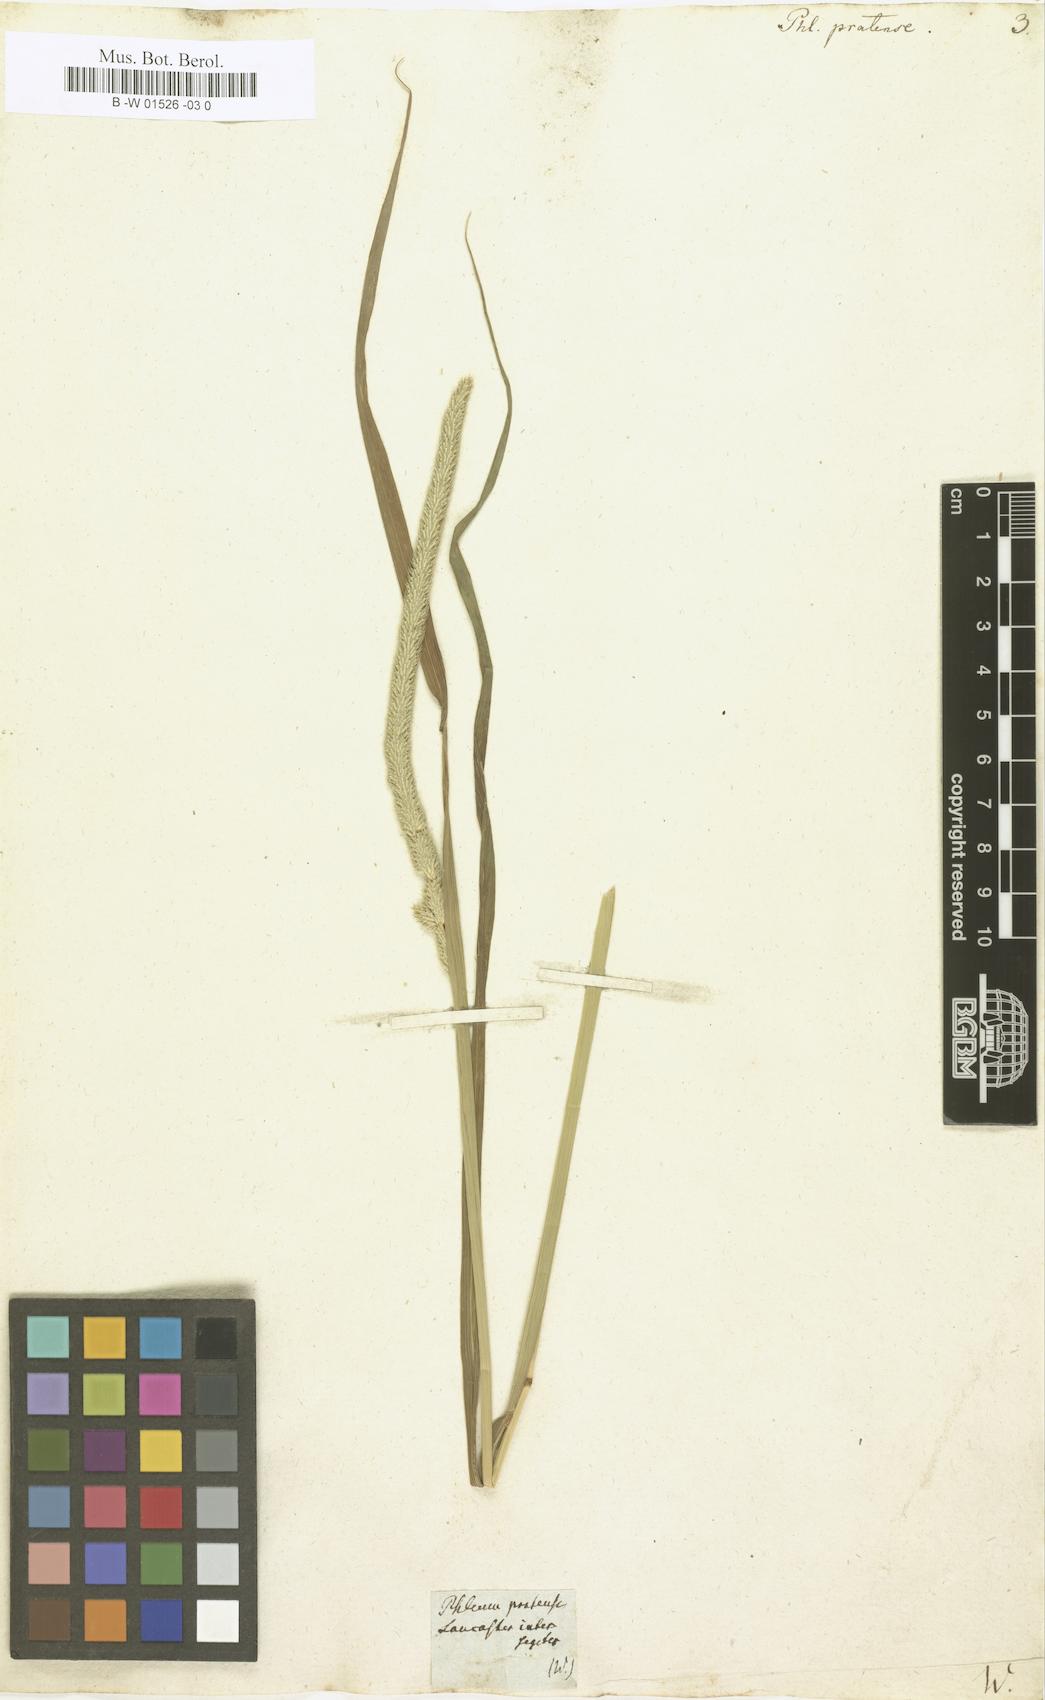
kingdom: Plantae
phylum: Tracheophyta
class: Liliopsida
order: Poales
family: Poaceae
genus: Phleum
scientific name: Phleum pratense
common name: Timothy grass
